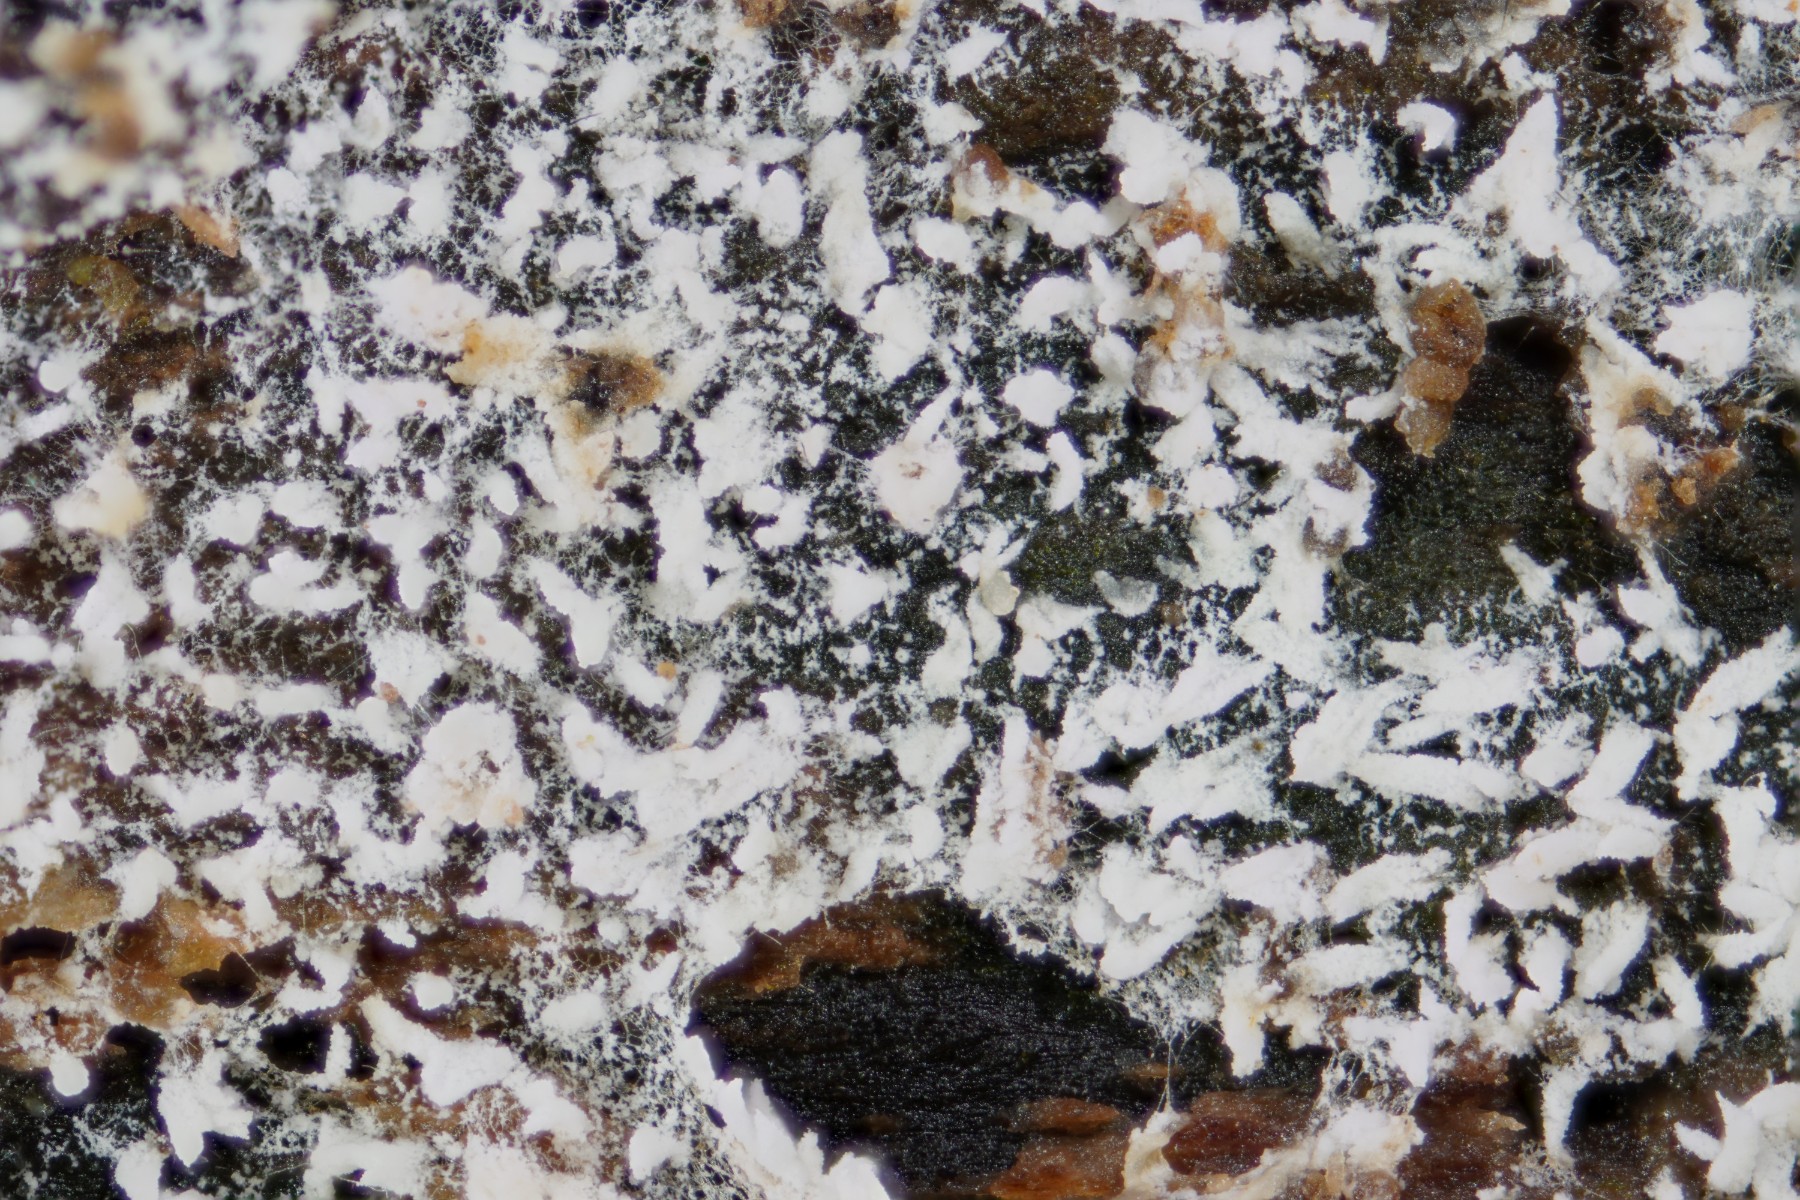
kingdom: Fungi
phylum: Basidiomycota
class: Agaricomycetes
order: Trechisporales
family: Sistotremataceae
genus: Trechispora
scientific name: Trechispora nivea
